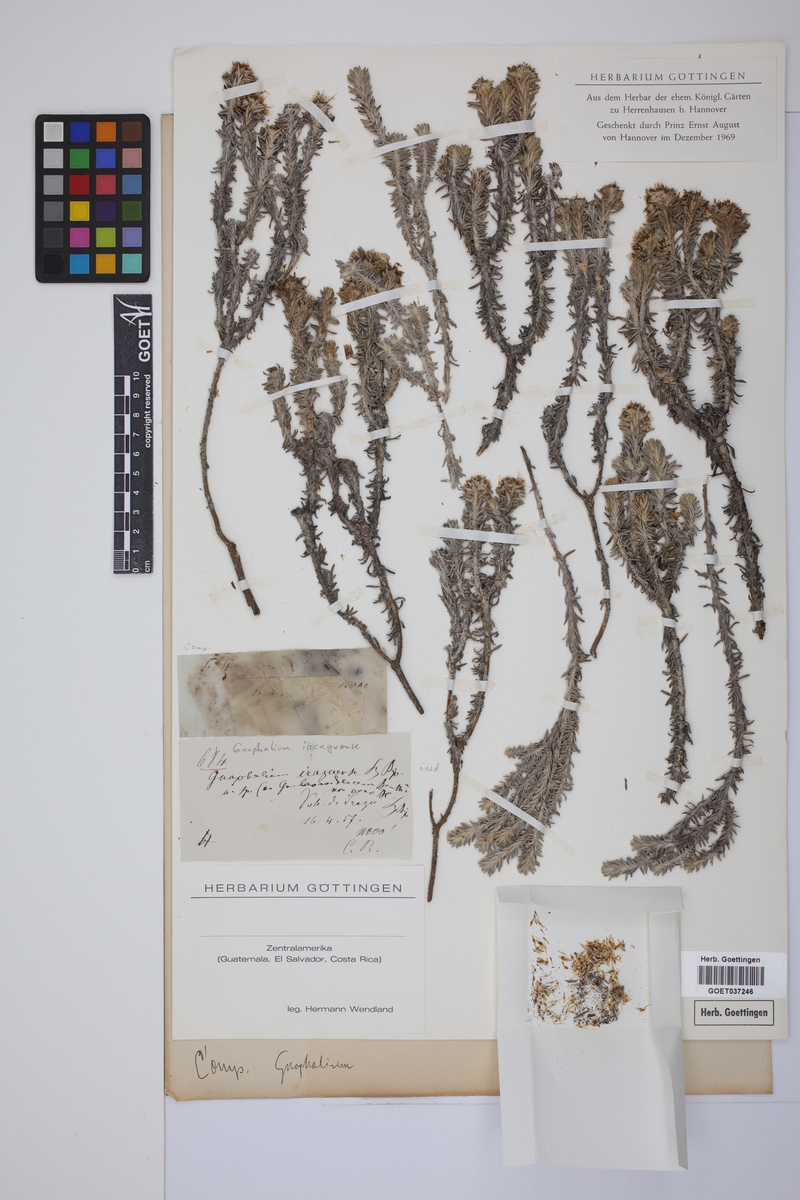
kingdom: Plantae
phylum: Tracheophyta
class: Magnoliopsida
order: Asterales
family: Asteraceae
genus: Gnaphalium
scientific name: Gnaphalium
